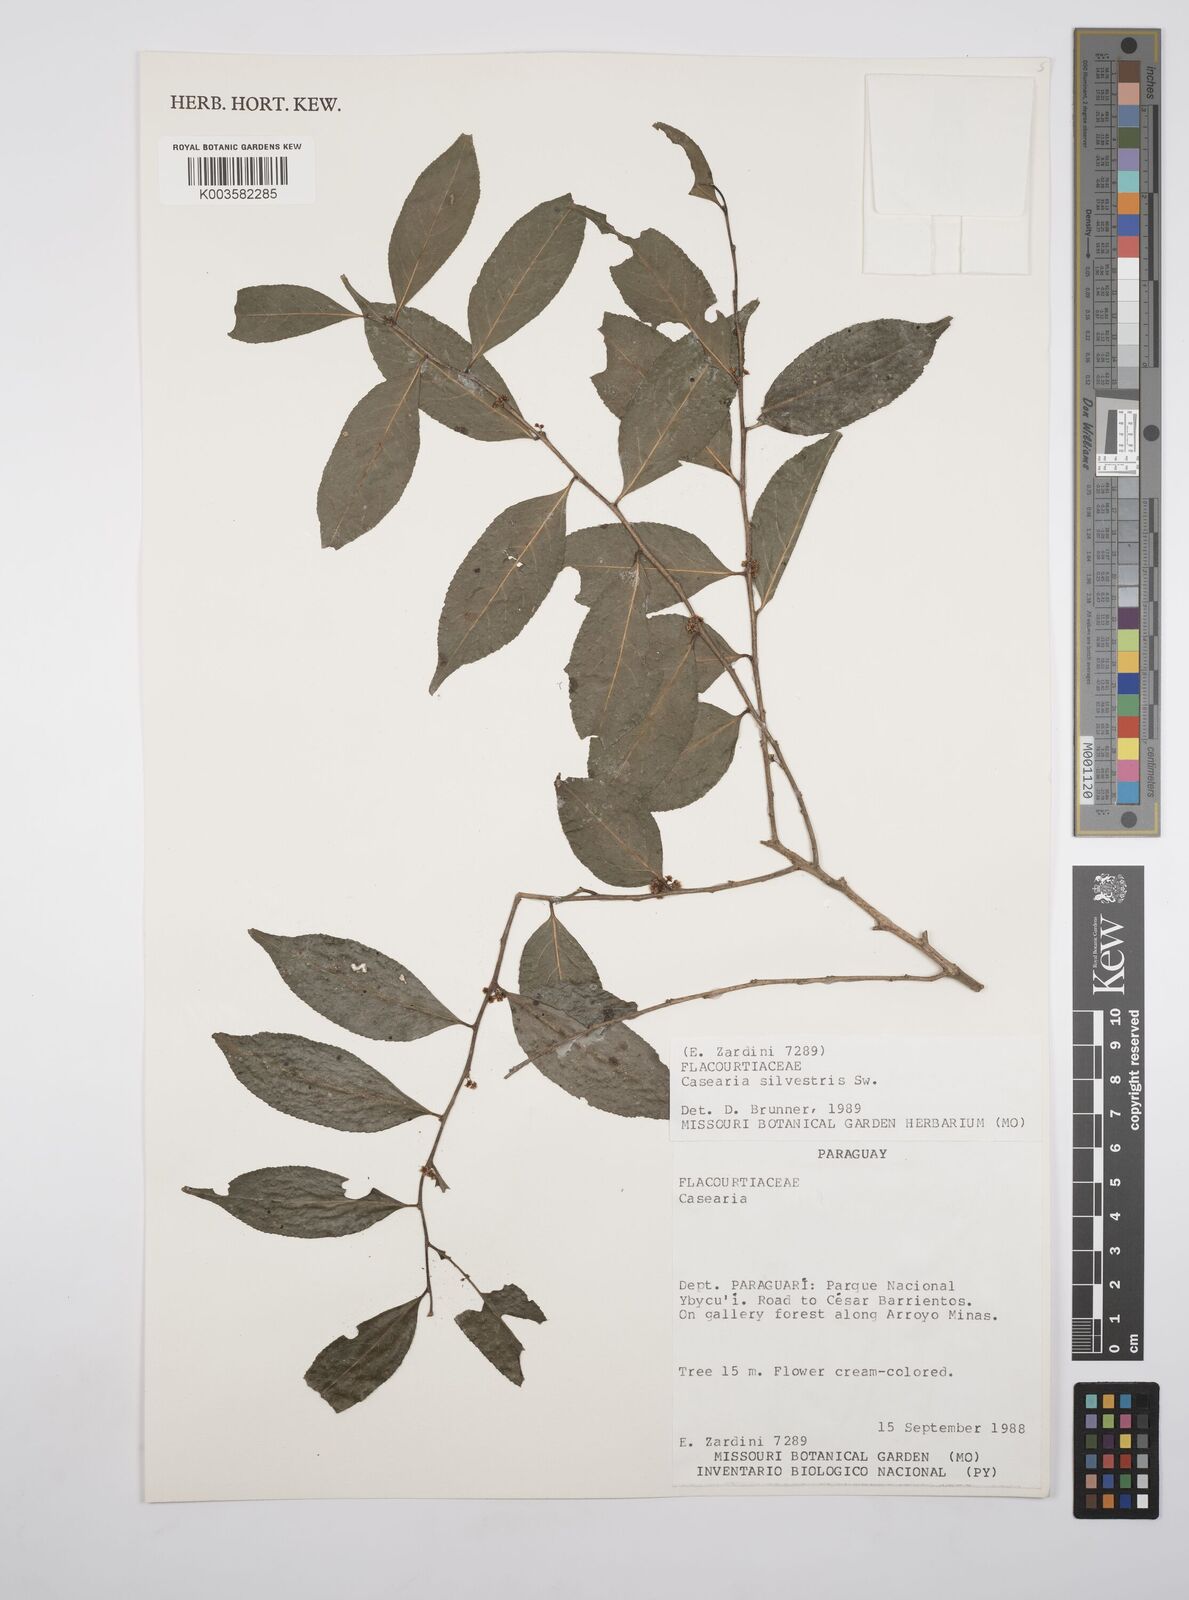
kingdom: Plantae
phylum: Tracheophyta
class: Magnoliopsida
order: Malpighiales
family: Salicaceae
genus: Casearia
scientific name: Casearia sylvestris
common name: Wild sage
